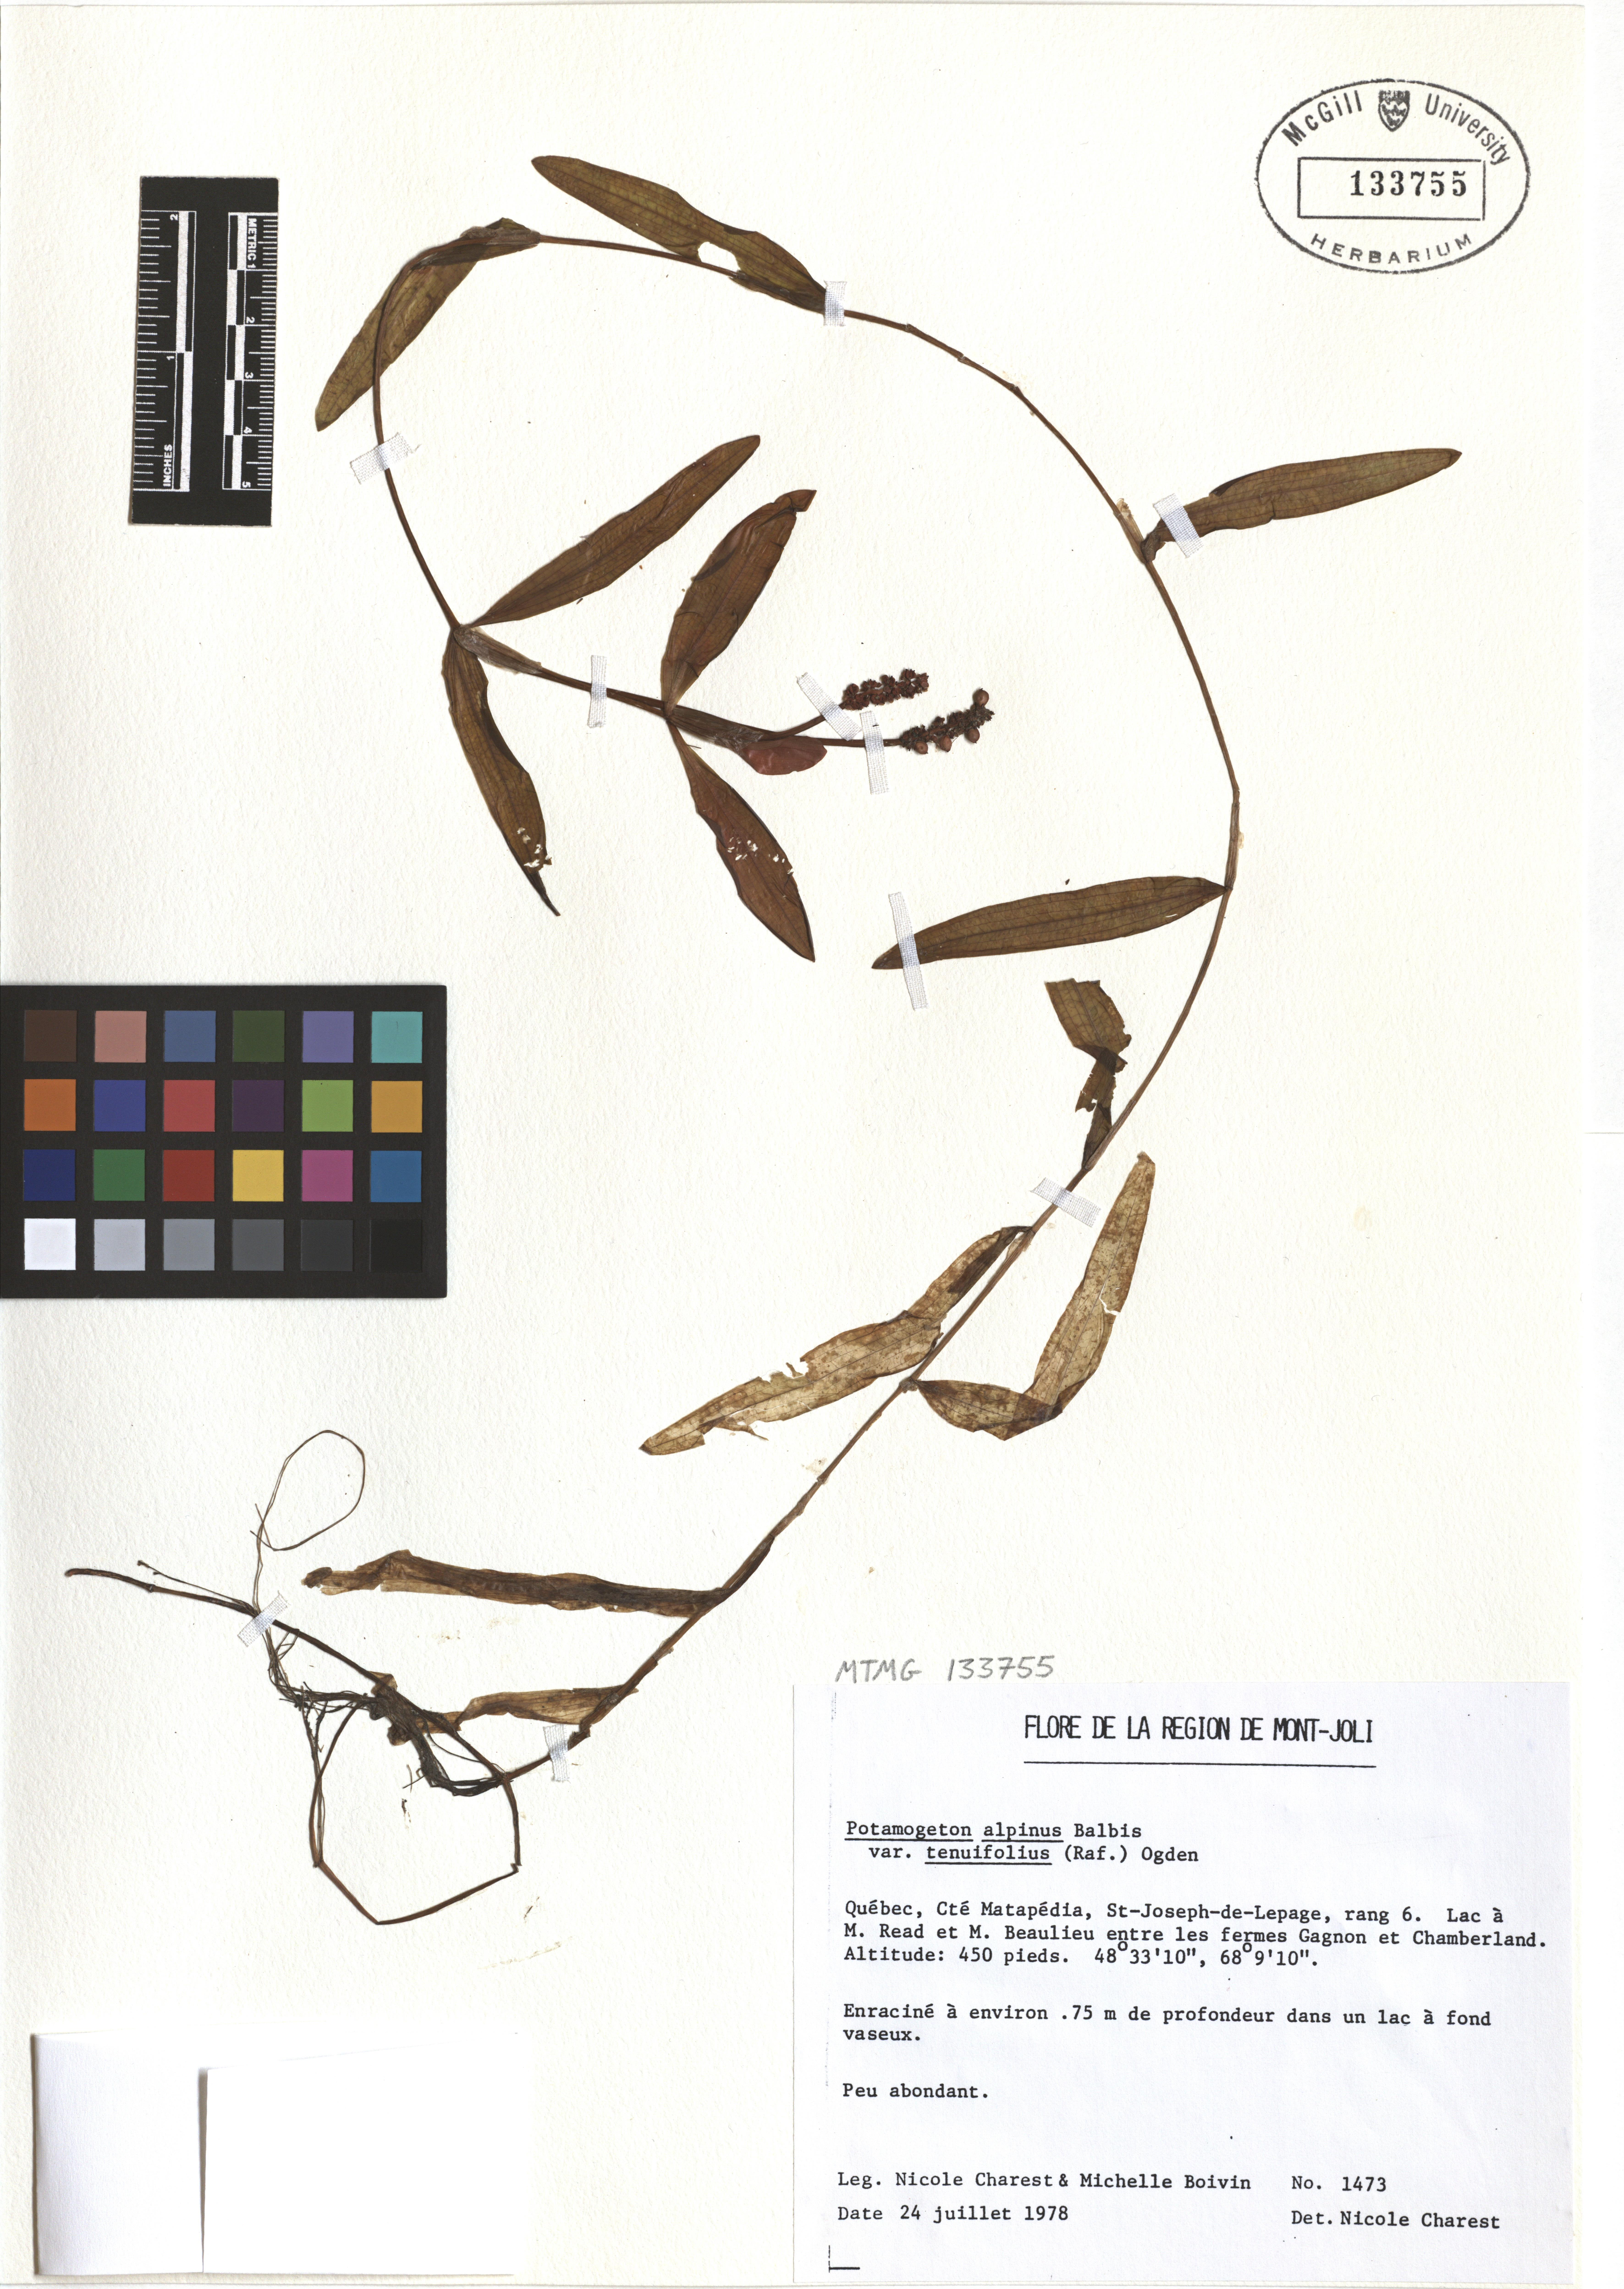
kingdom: Plantae
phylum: Tracheophyta
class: Liliopsida
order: Alismatales
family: Potamogetonaceae
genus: Potamogeton
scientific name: Potamogeton alpinus
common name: Red pondweed
